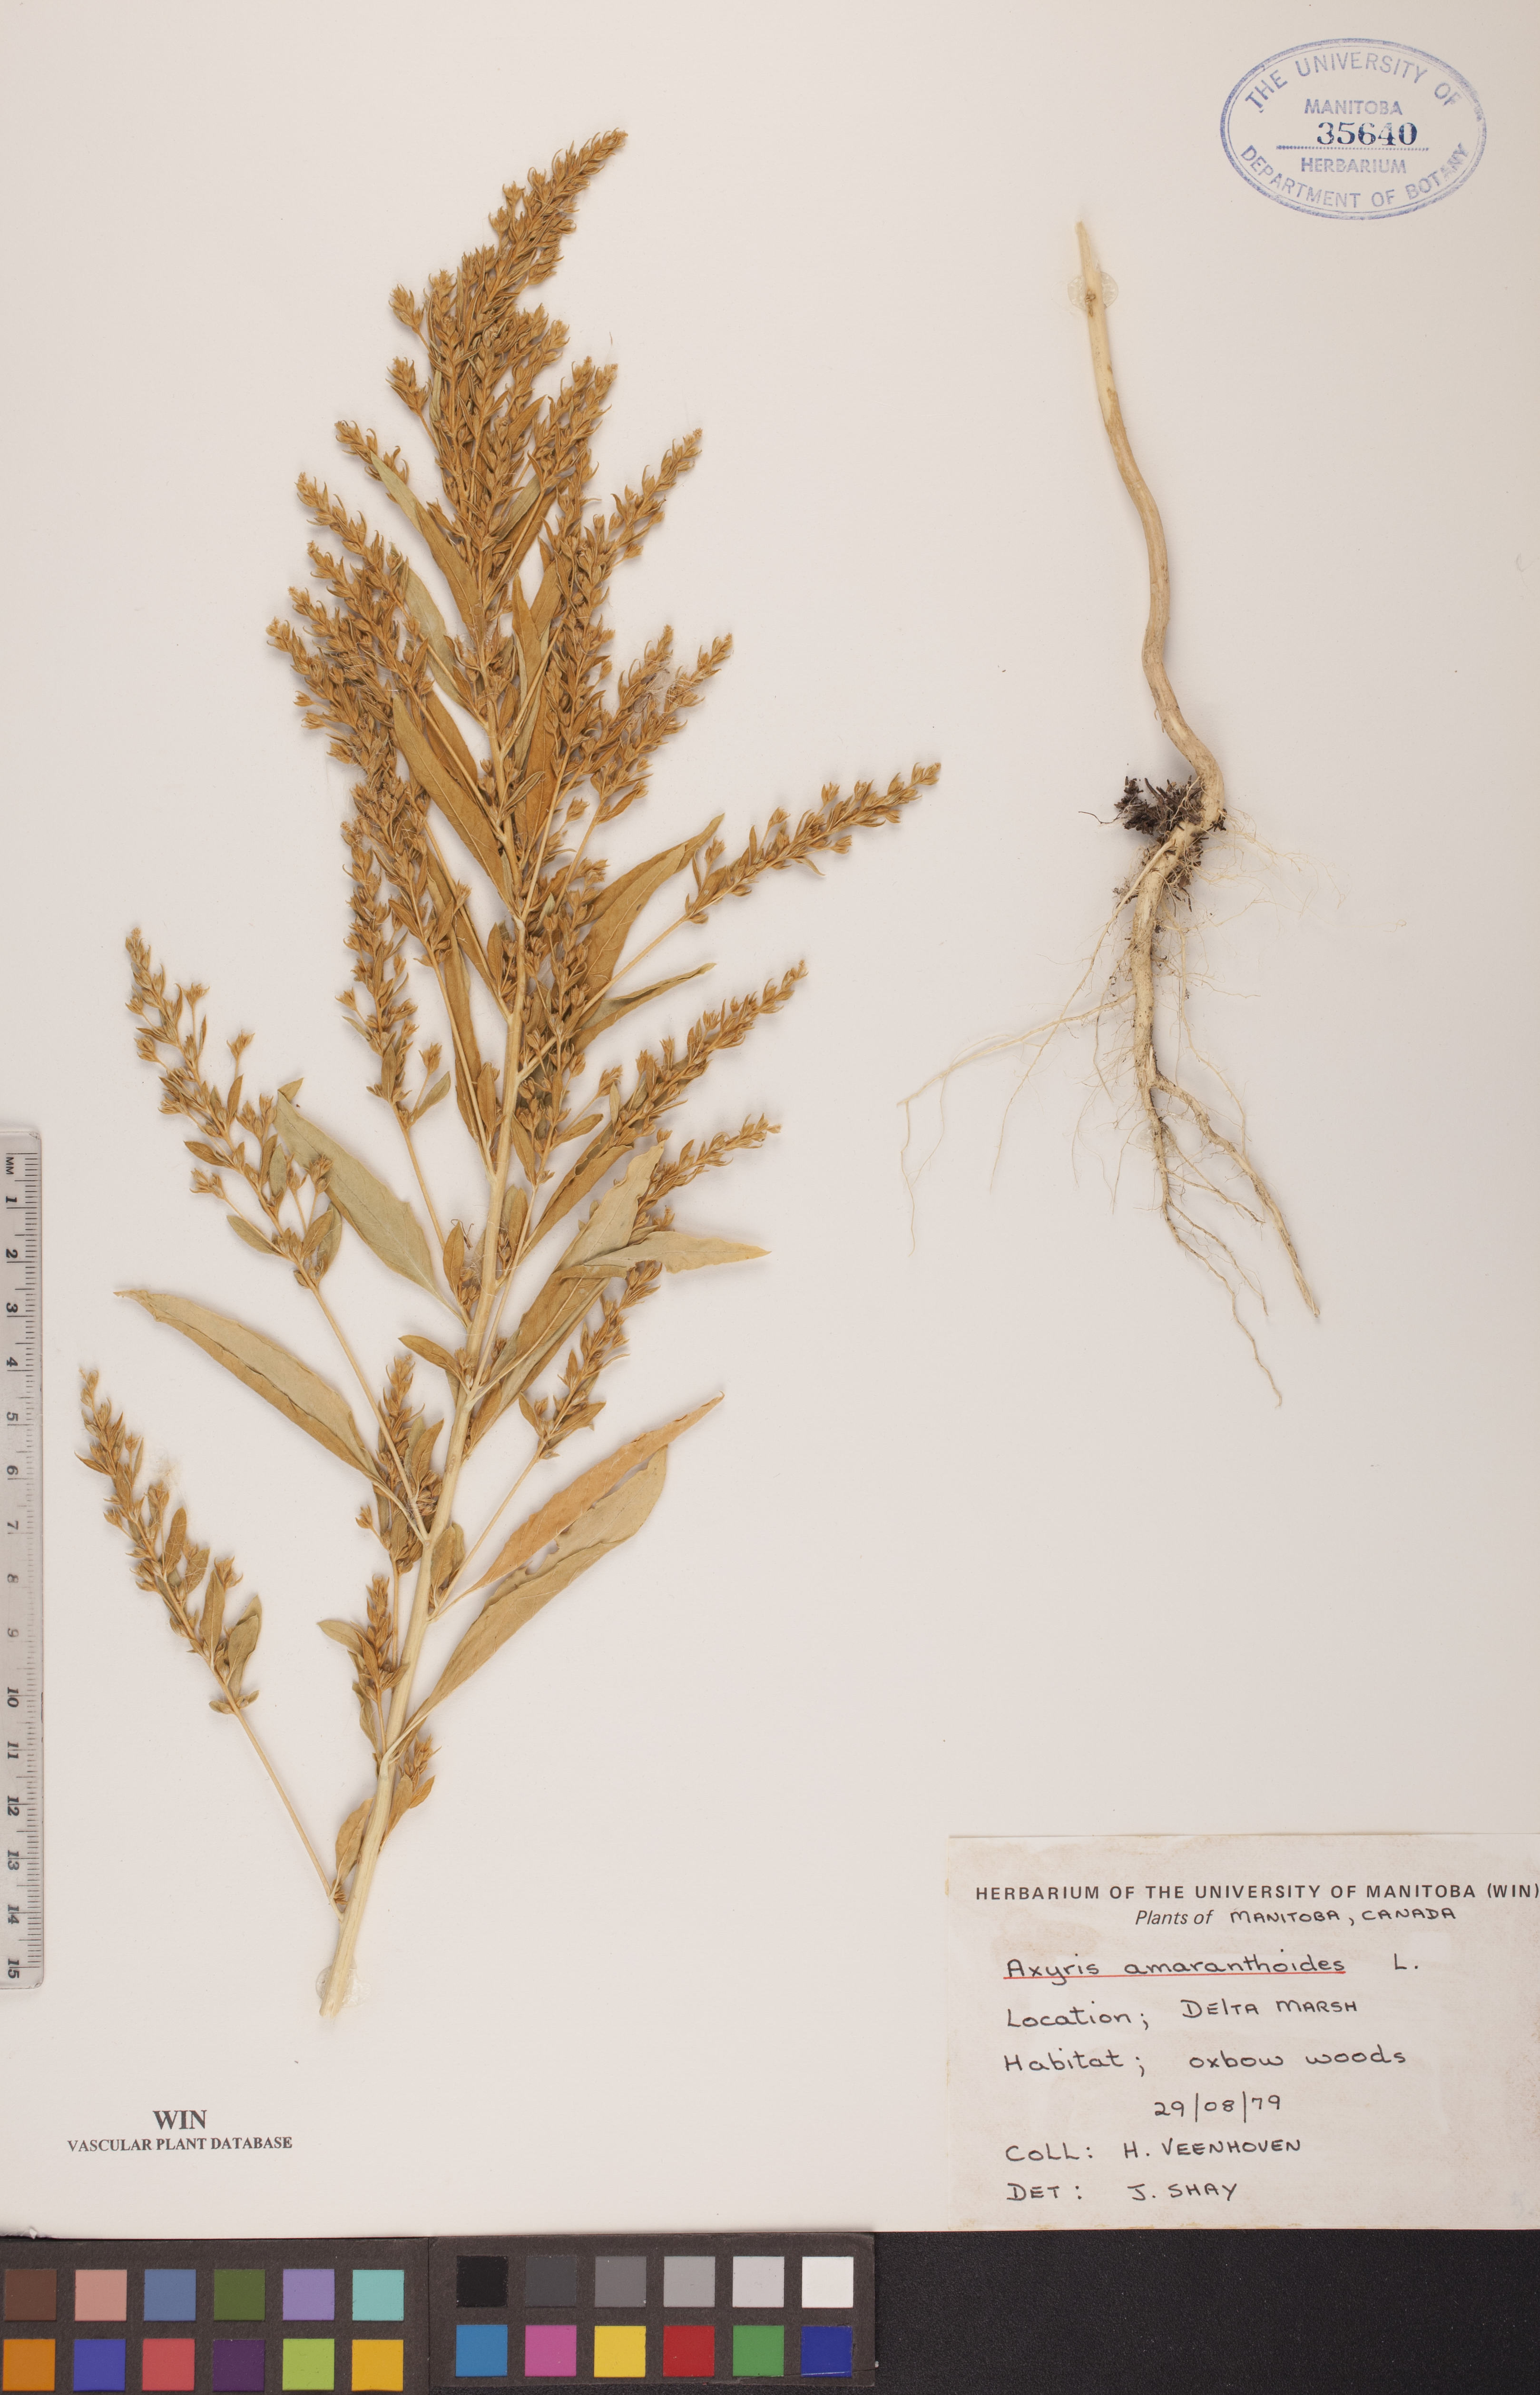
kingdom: Plantae
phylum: Tracheophyta
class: Magnoliopsida
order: Caryophyllales
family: Amaranthaceae
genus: Axyris
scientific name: Axyris amaranthoides
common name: Russian pigweed
